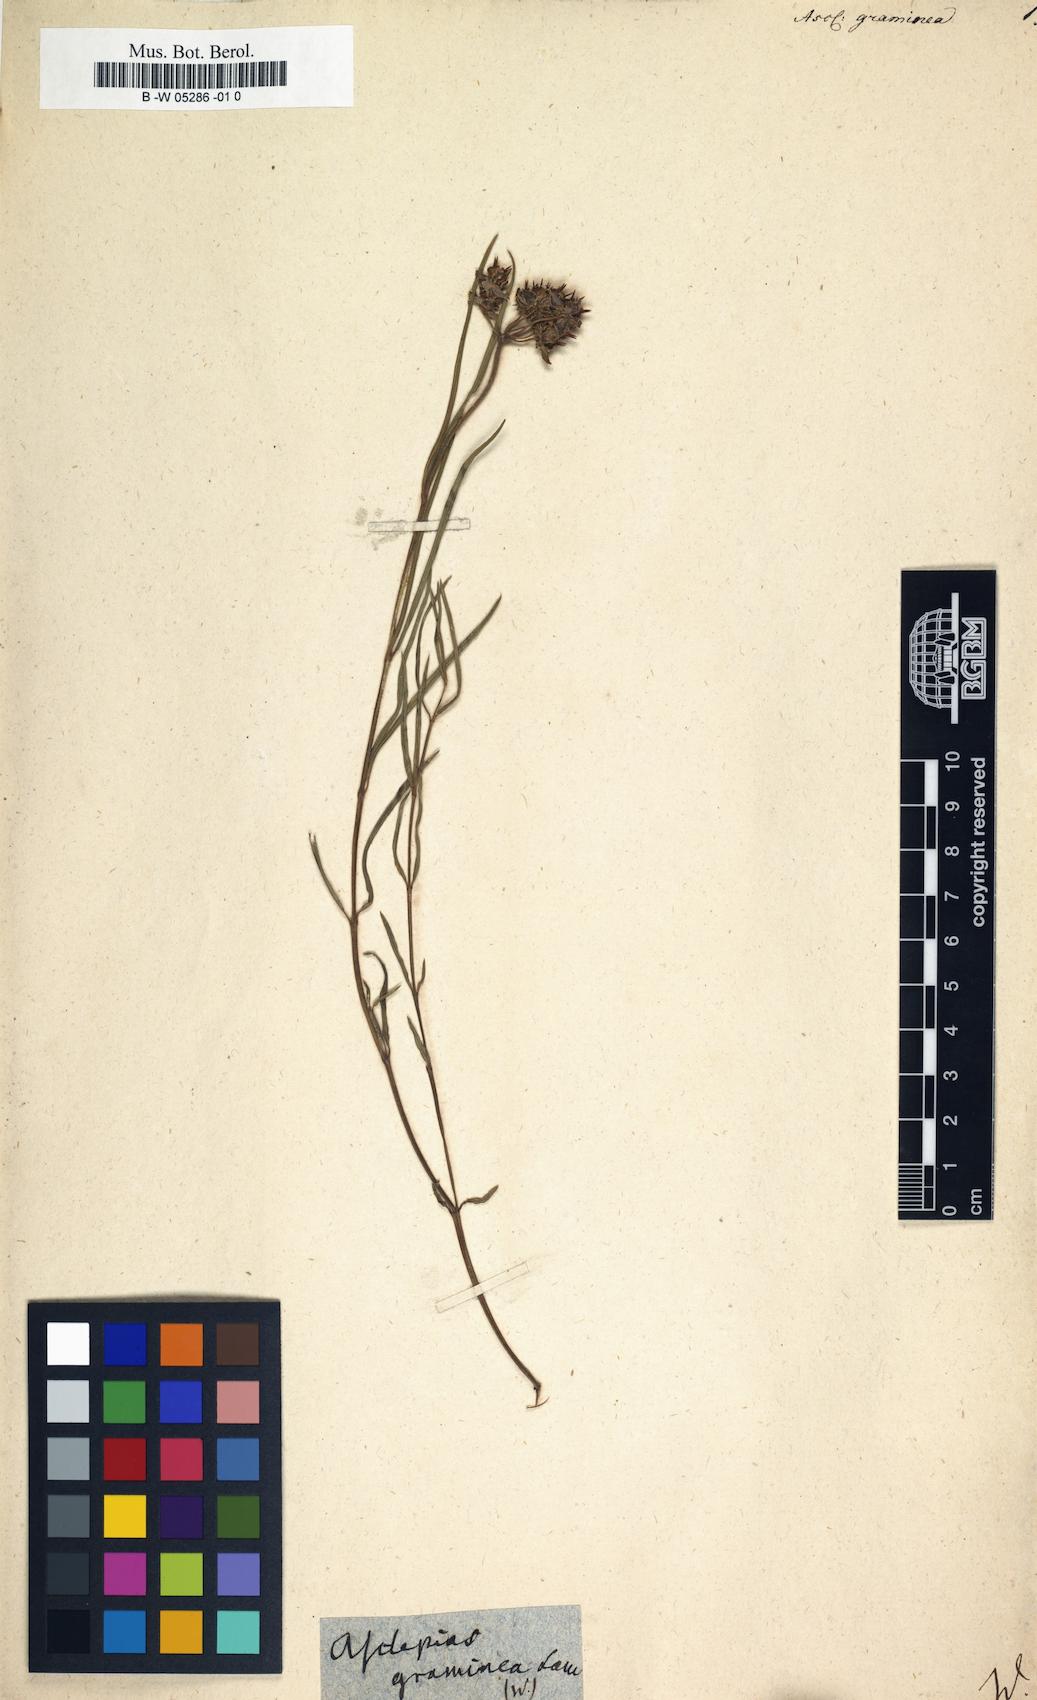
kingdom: Plantae
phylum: Tracheophyta
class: Magnoliopsida
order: Gentianales
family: Apocynaceae
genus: Asclepias
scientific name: Asclepias graminea
